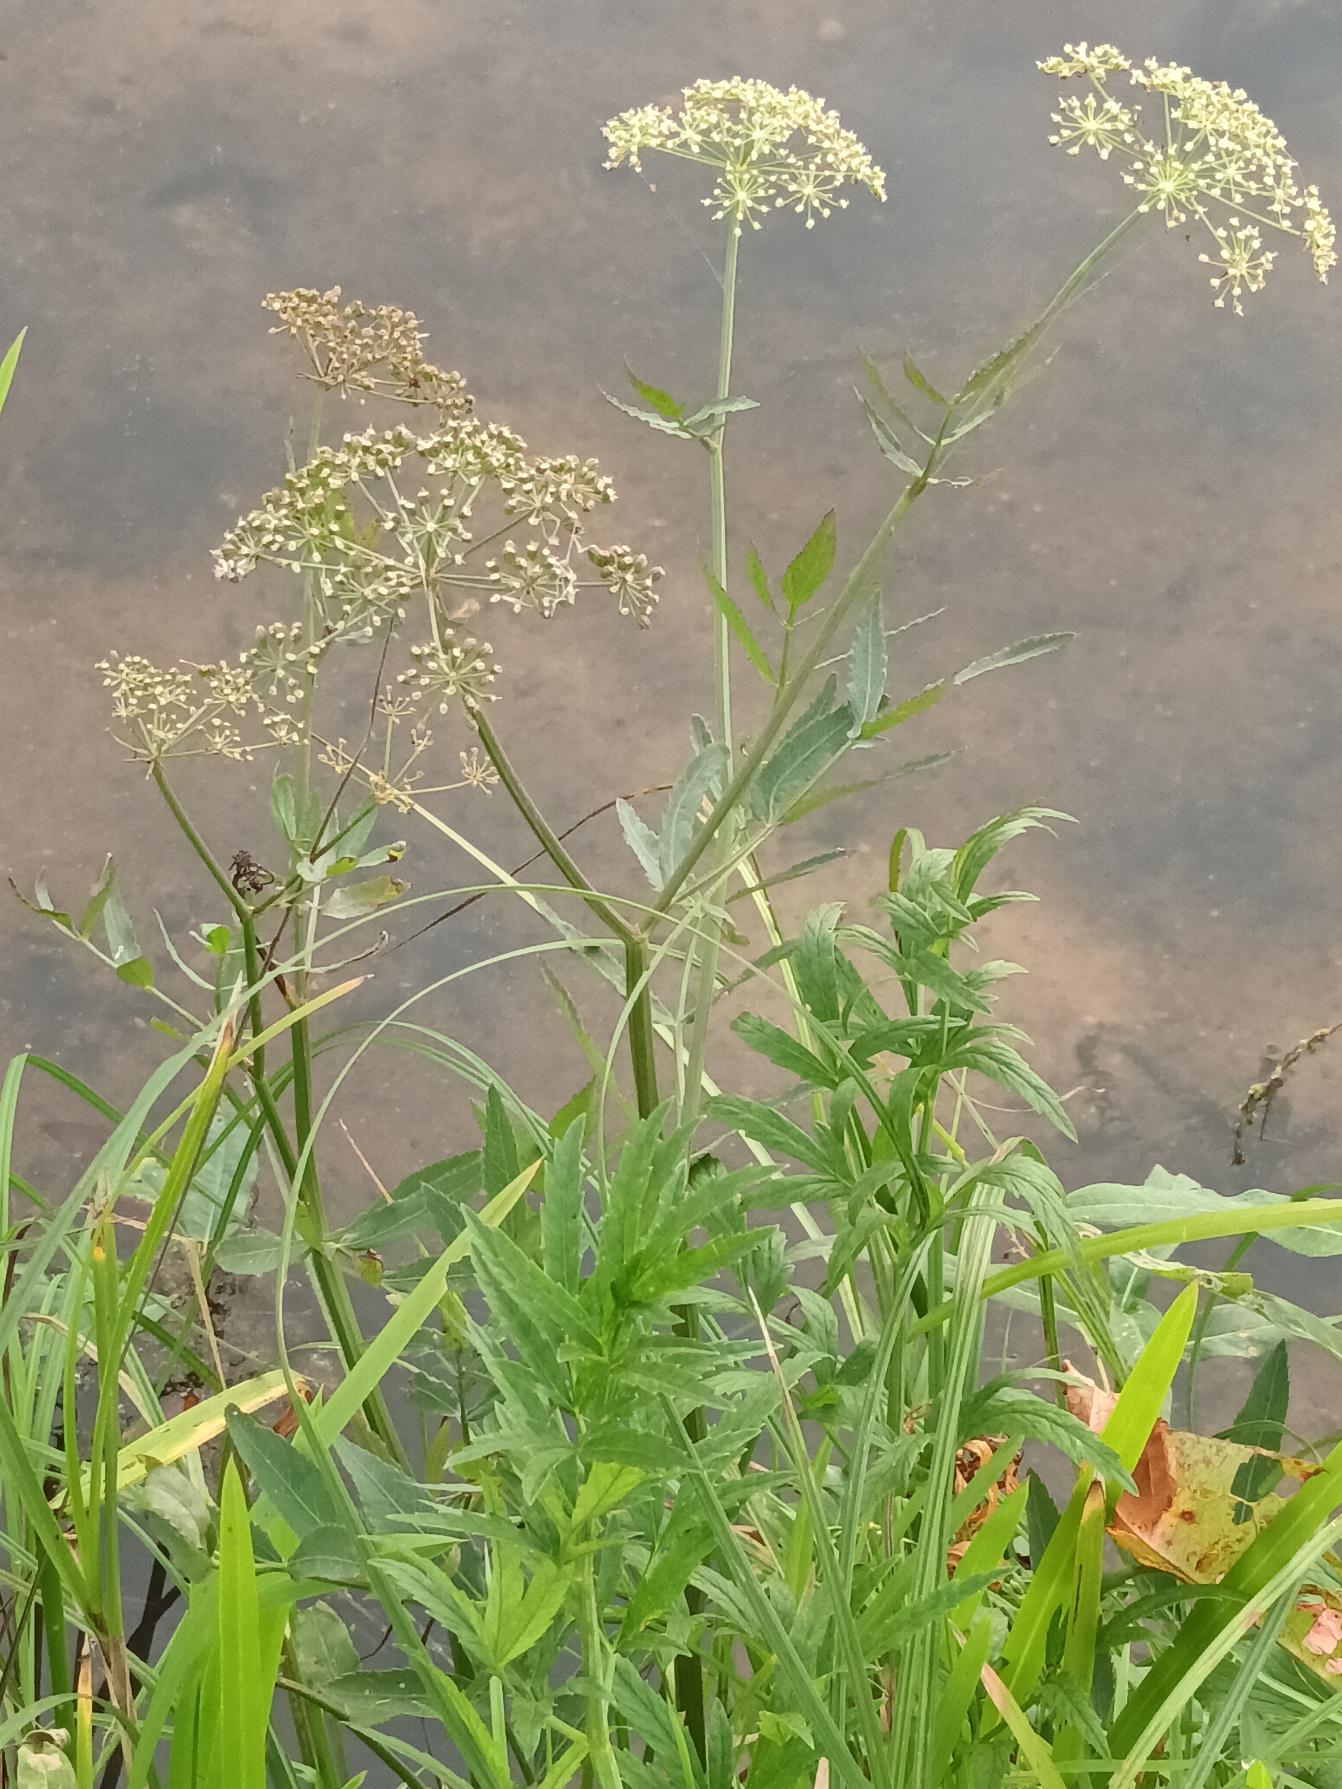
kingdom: Plantae
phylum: Tracheophyta
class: Magnoliopsida
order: Apiales
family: Apiaceae
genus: Cicuta
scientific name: Cicuta virosa
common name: Gifttyde
